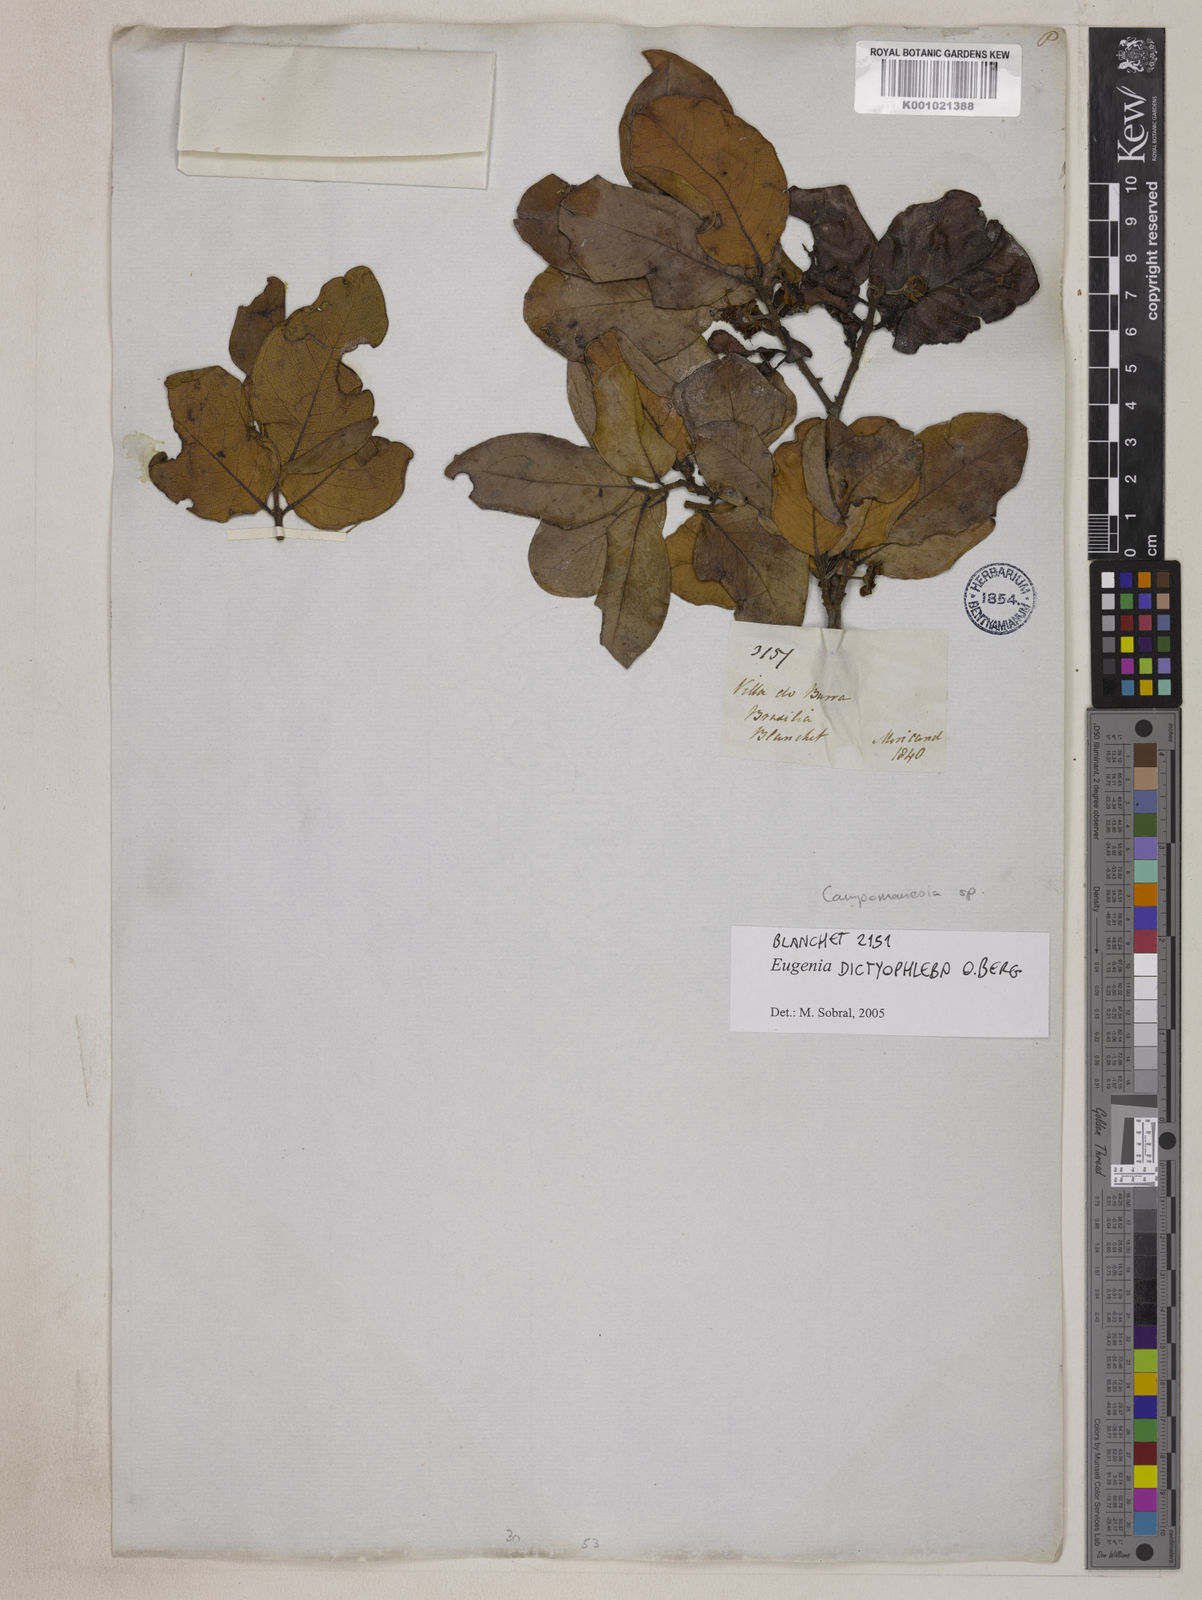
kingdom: Plantae
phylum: Tracheophyta
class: Magnoliopsida
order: Myrtales
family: Myrtaceae
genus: Eugenia
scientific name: Eugenia dictyophleba
